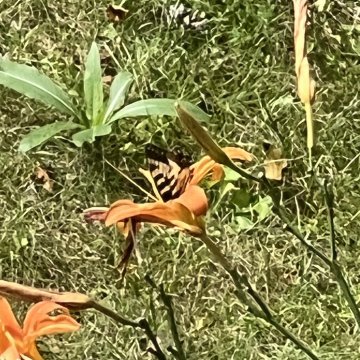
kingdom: Animalia
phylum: Arthropoda
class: Insecta
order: Lepidoptera
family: Papilionidae
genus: Pterourus
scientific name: Pterourus
